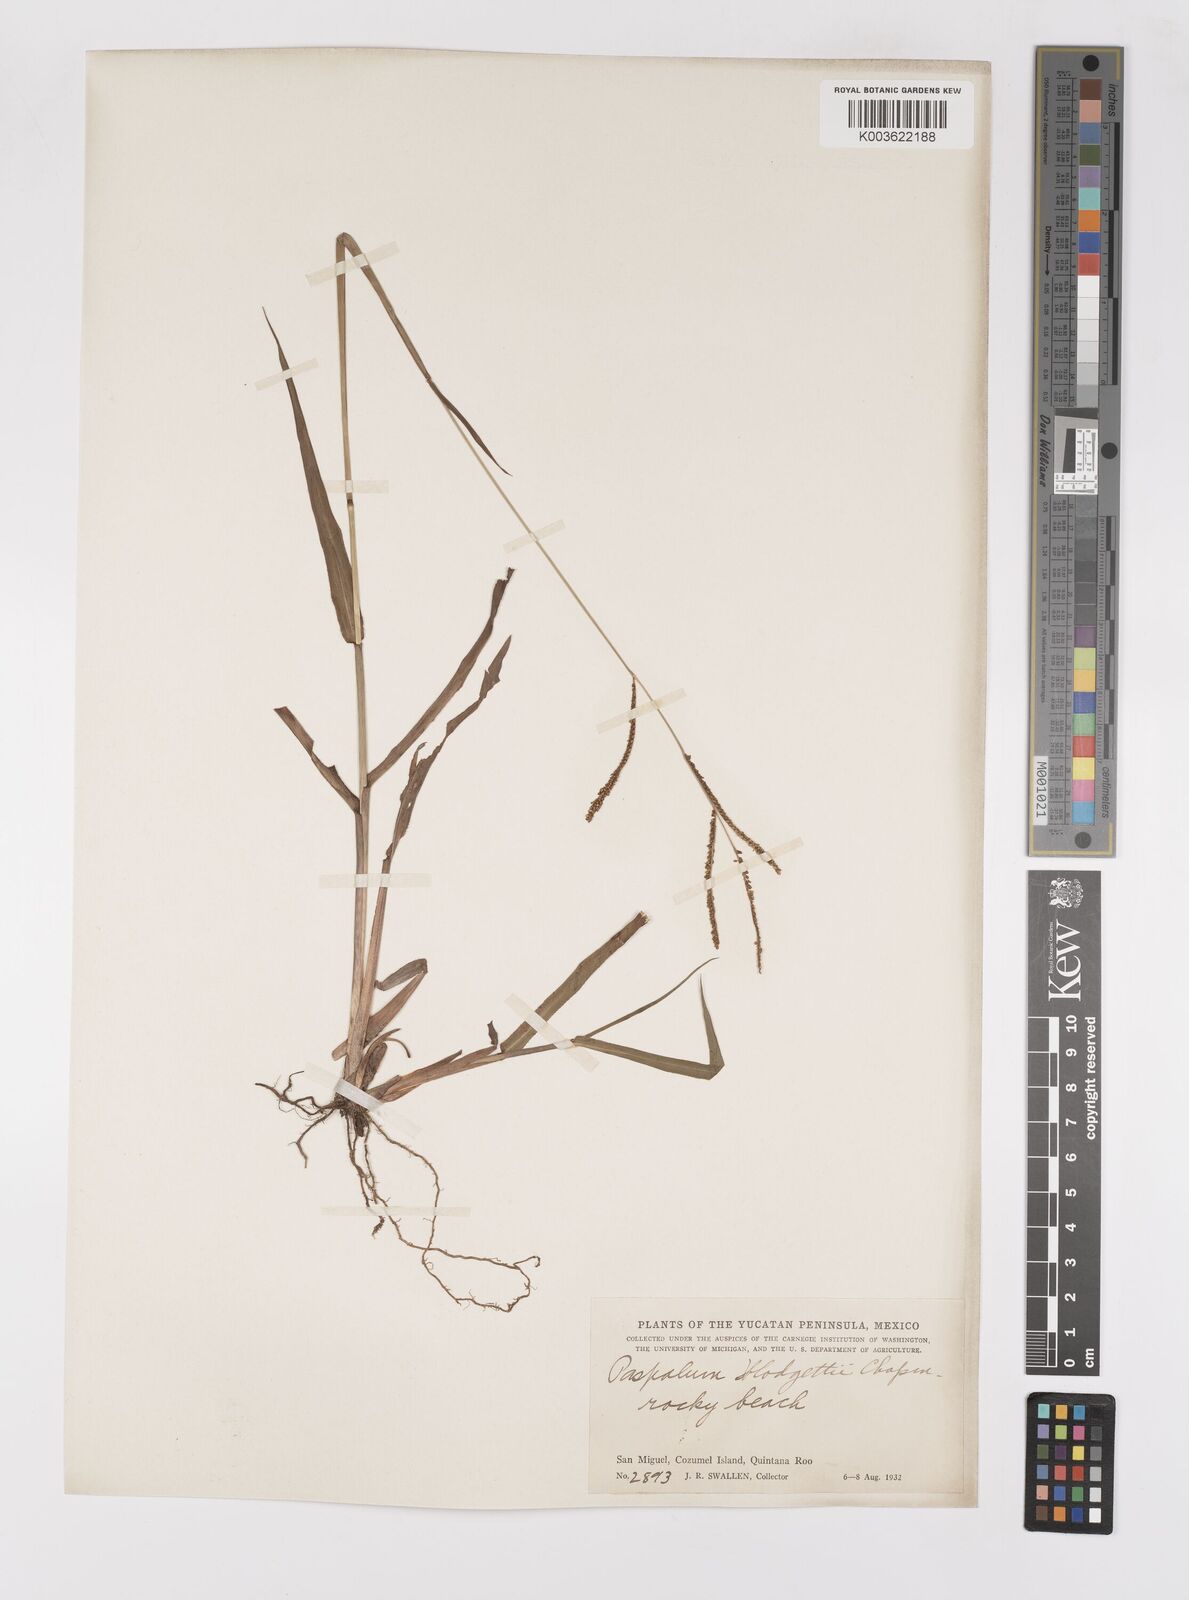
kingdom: Plantae
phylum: Tracheophyta
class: Liliopsida
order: Poales
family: Poaceae
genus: Paspalum
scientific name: Paspalum blodgettii
